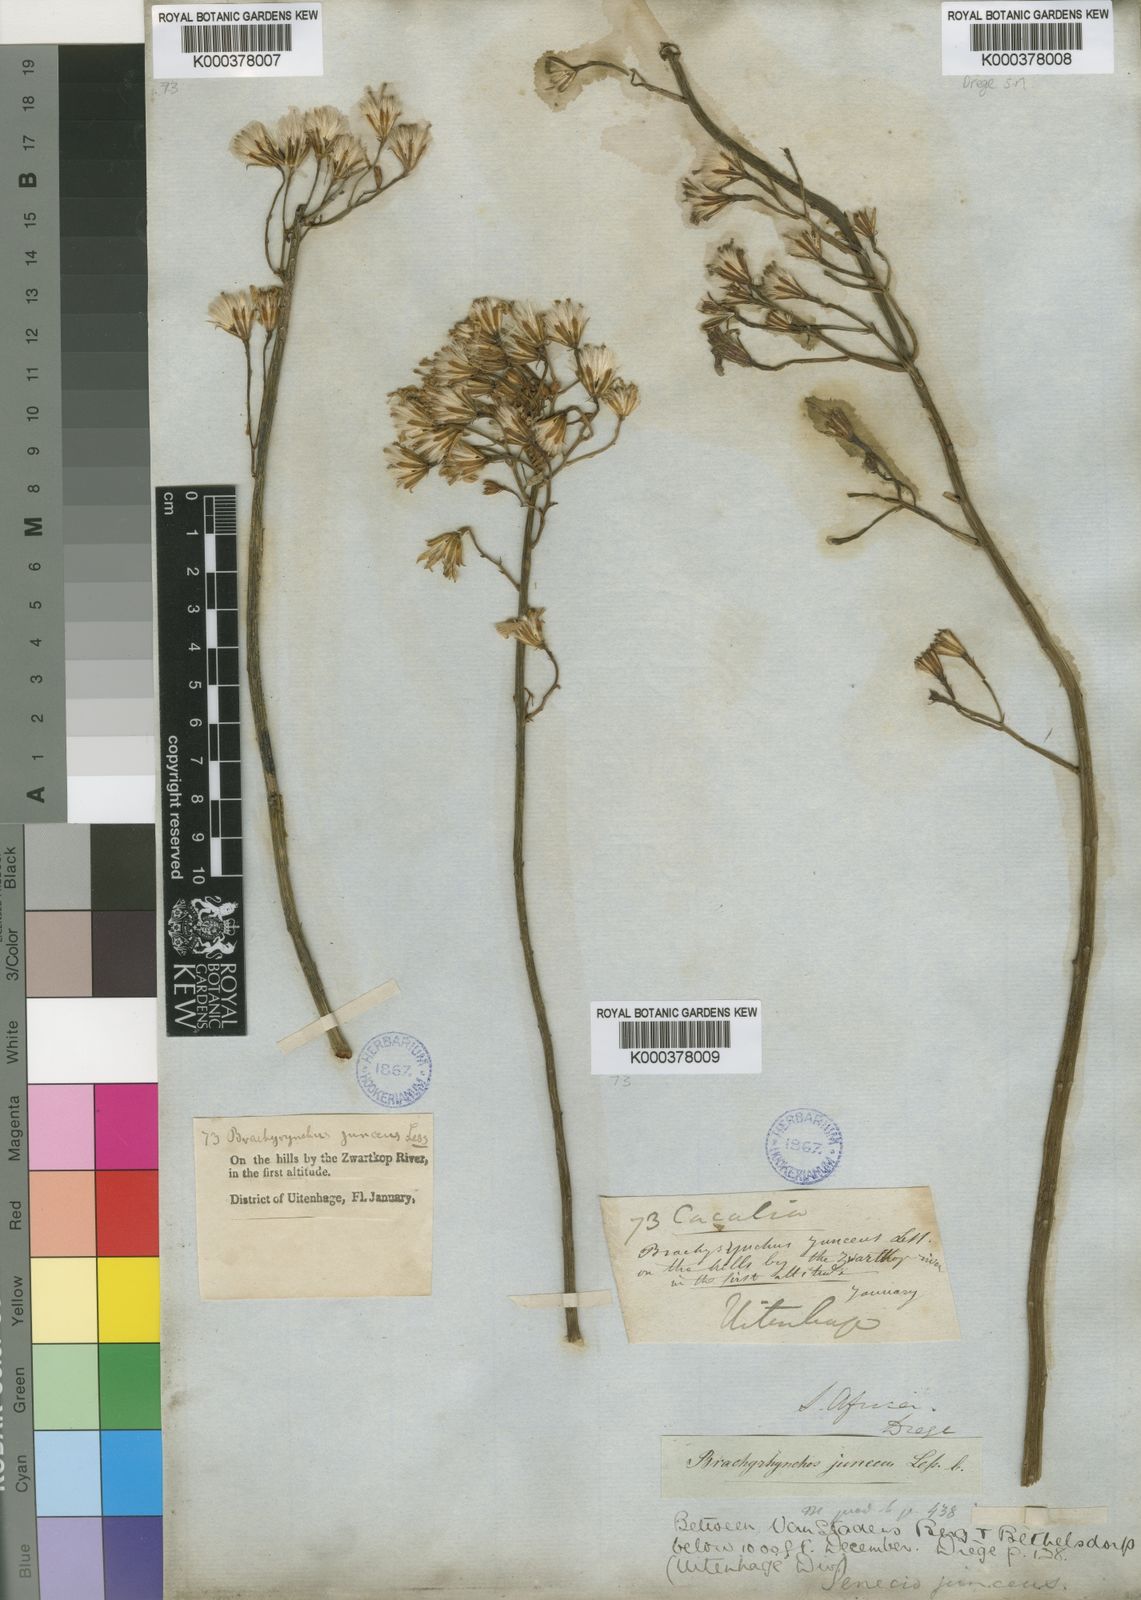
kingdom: Plantae
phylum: Tracheophyta
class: Magnoliopsida
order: Asterales
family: Asteraceae
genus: Senecio
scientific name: Senecio junceus
